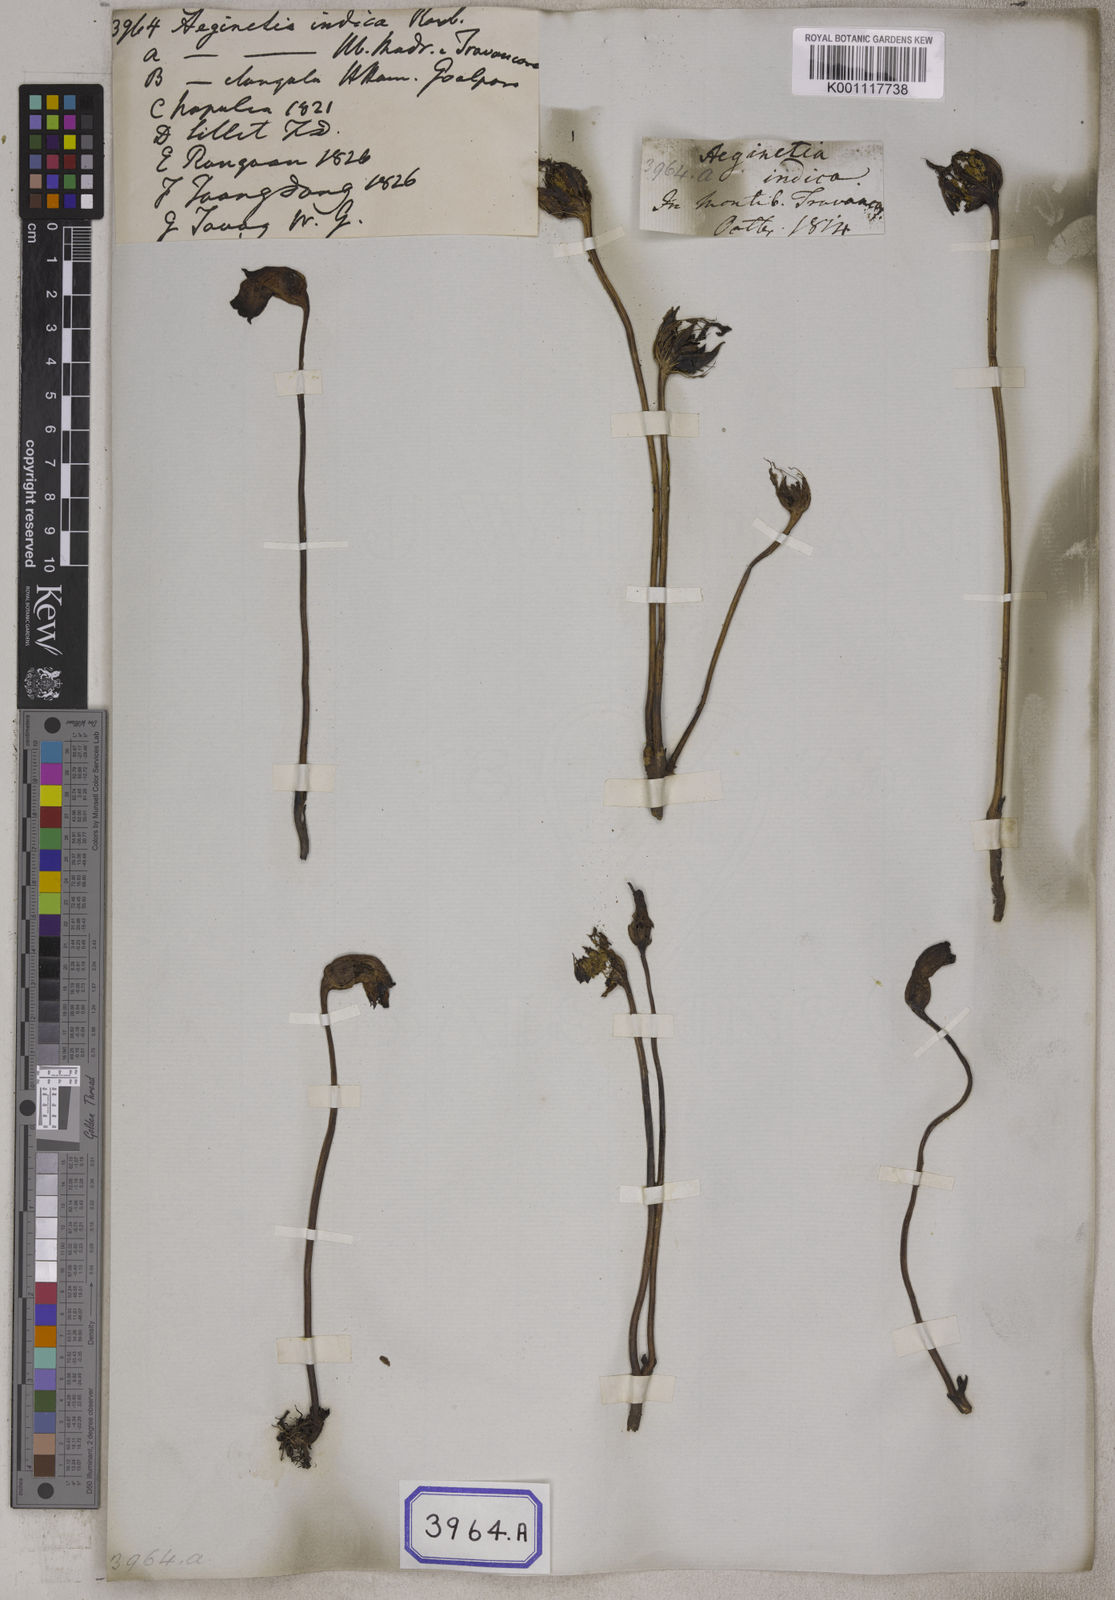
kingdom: Plantae
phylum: Tracheophyta
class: Magnoliopsida
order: Lamiales
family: Orobanchaceae
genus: Aeginetia
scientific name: Aeginetia
